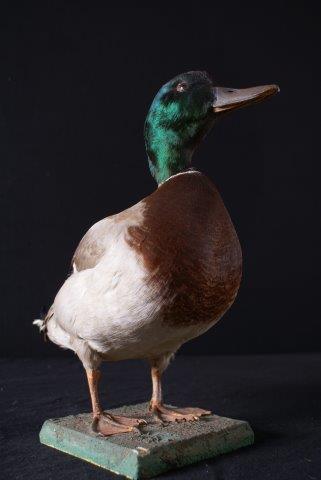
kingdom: Animalia
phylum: Chordata
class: Aves
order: Anseriformes
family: Anatidae
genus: Anas
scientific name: Anas platyrhynchos
